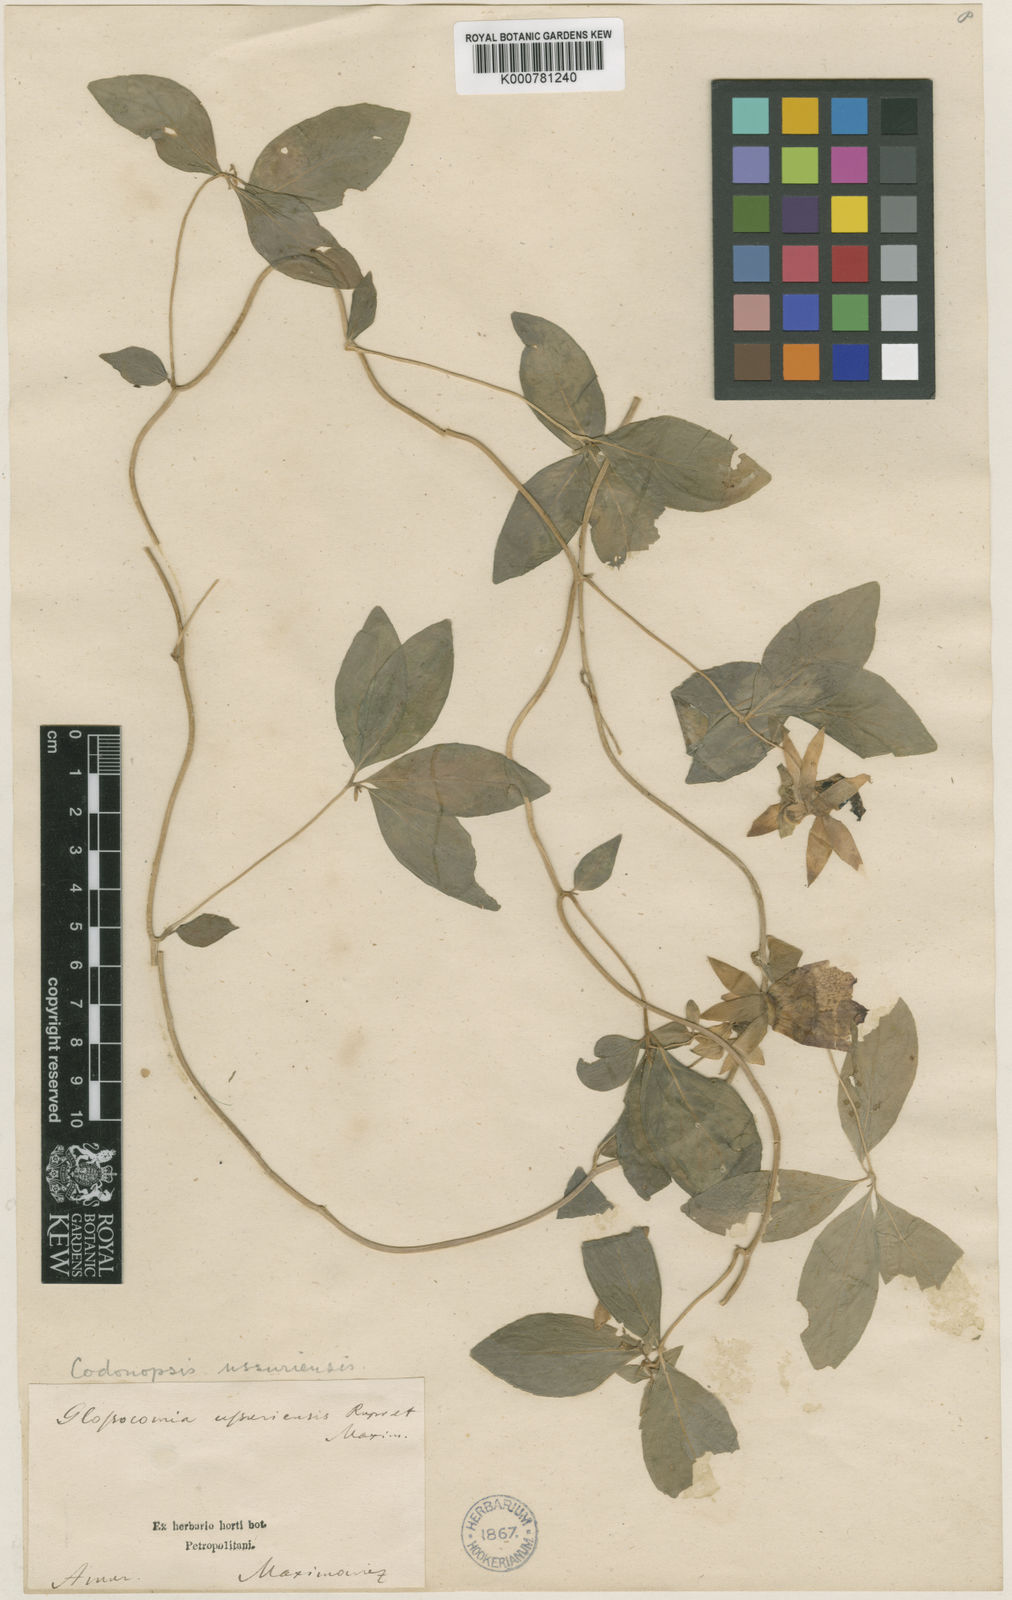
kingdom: Plantae
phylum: Tracheophyta
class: Magnoliopsida
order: Asterales
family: Campanulaceae
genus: Codonopsis
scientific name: Codonopsis ussuriensis
